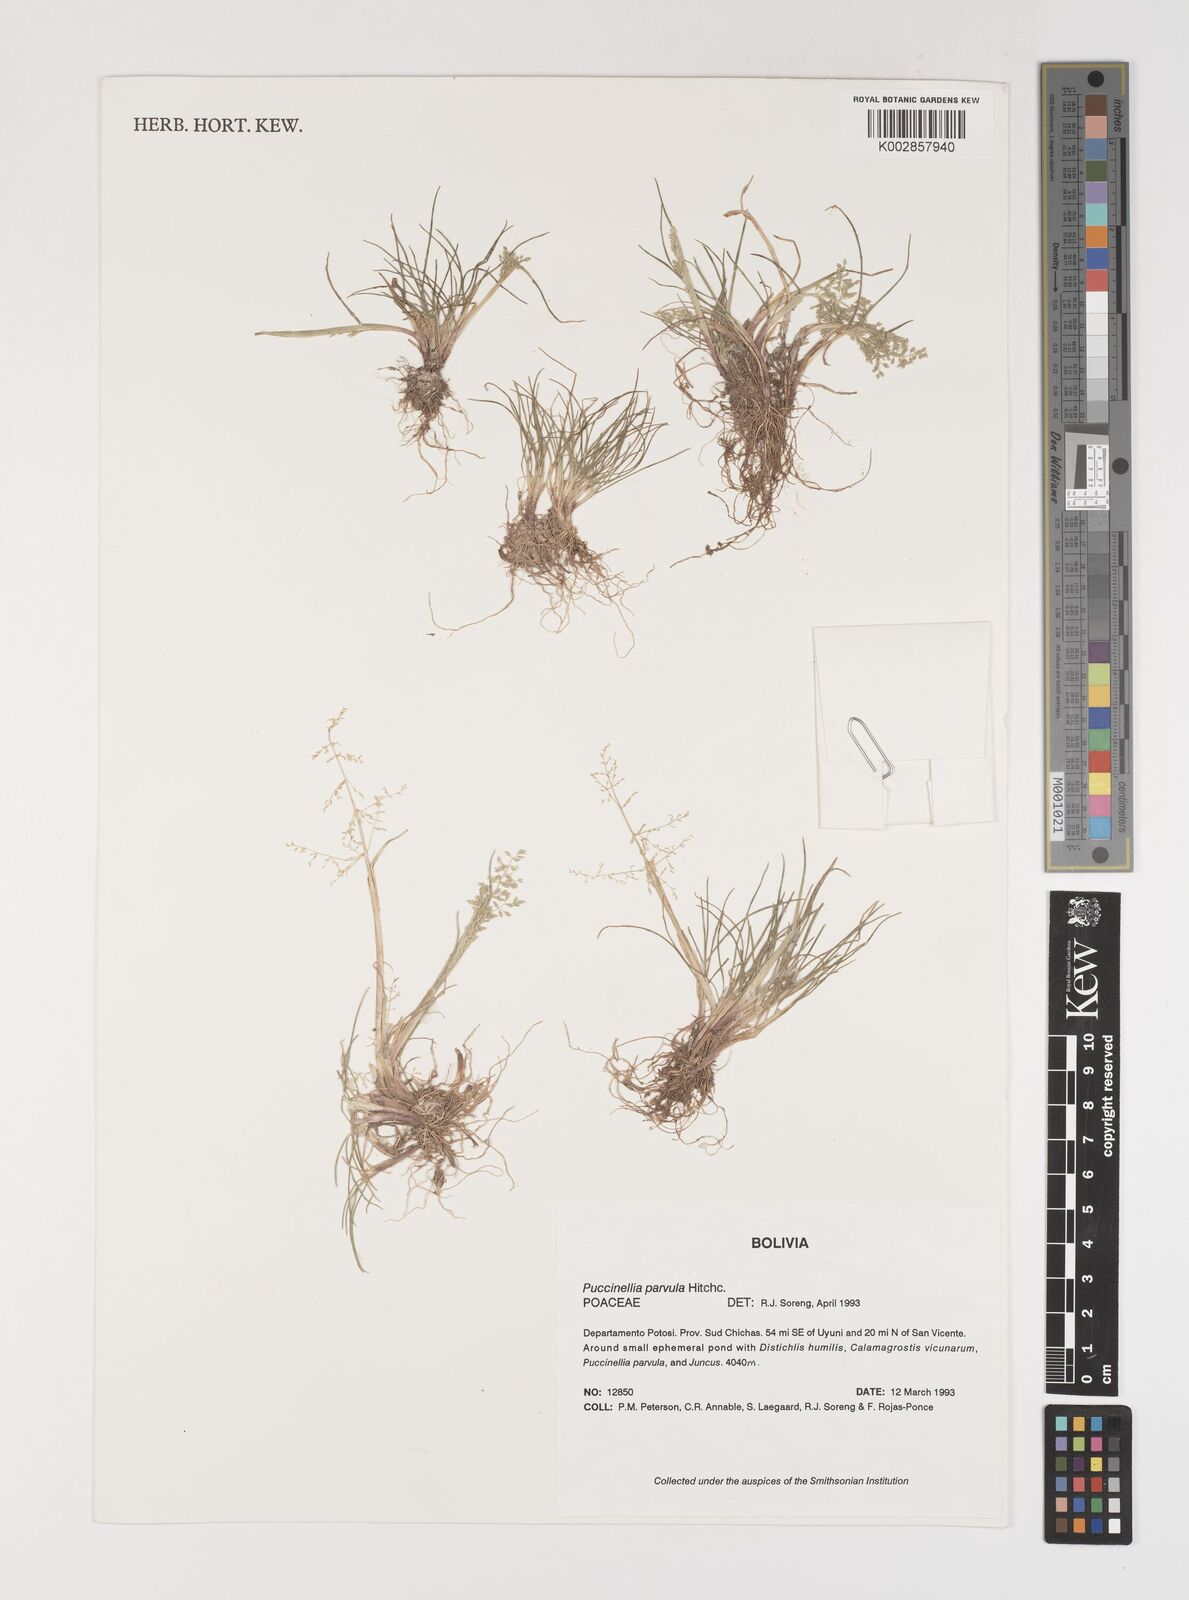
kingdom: Plantae
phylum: Tracheophyta
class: Liliopsida
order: Poales
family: Poaceae
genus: Puccinellia
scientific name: Puccinellia parvula
